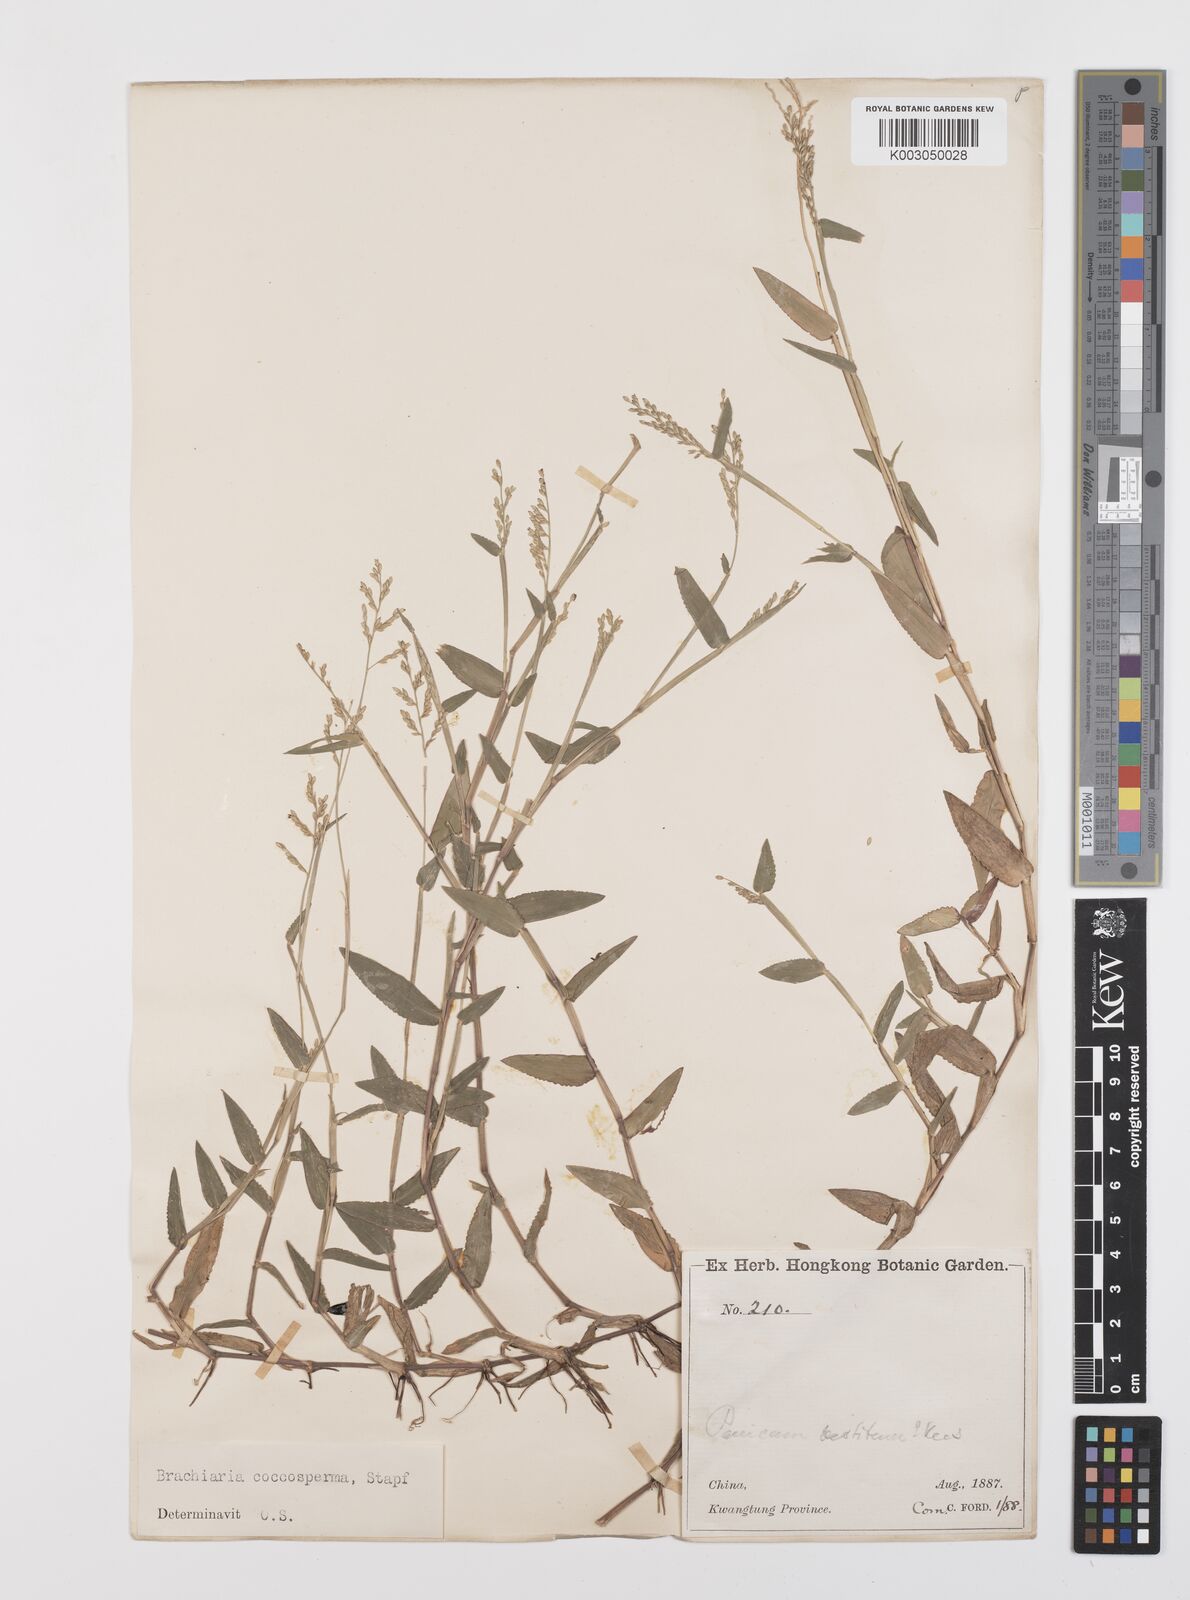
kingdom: Plantae
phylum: Tracheophyta
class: Liliopsida
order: Poales
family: Poaceae
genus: Urochloa
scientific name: Urochloa villosa
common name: Hairy signalgrass
